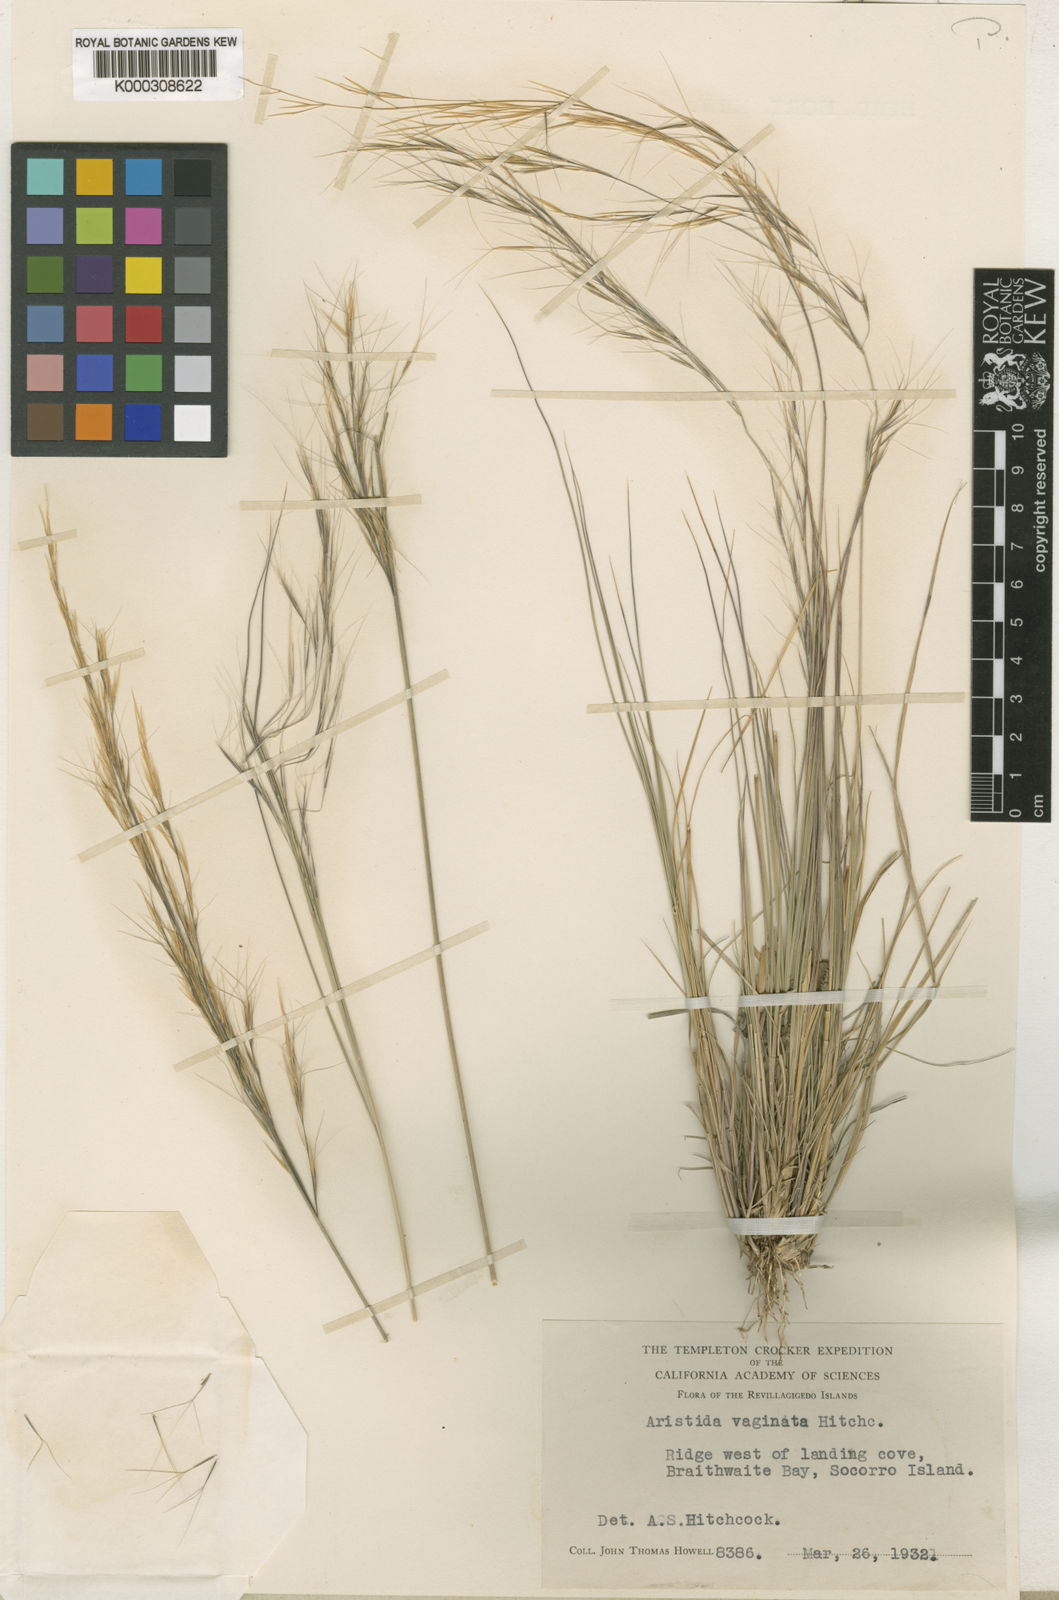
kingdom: Plantae
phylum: Tracheophyta
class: Liliopsida
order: Poales
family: Poaceae
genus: Aristida
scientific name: Aristida vaginata
